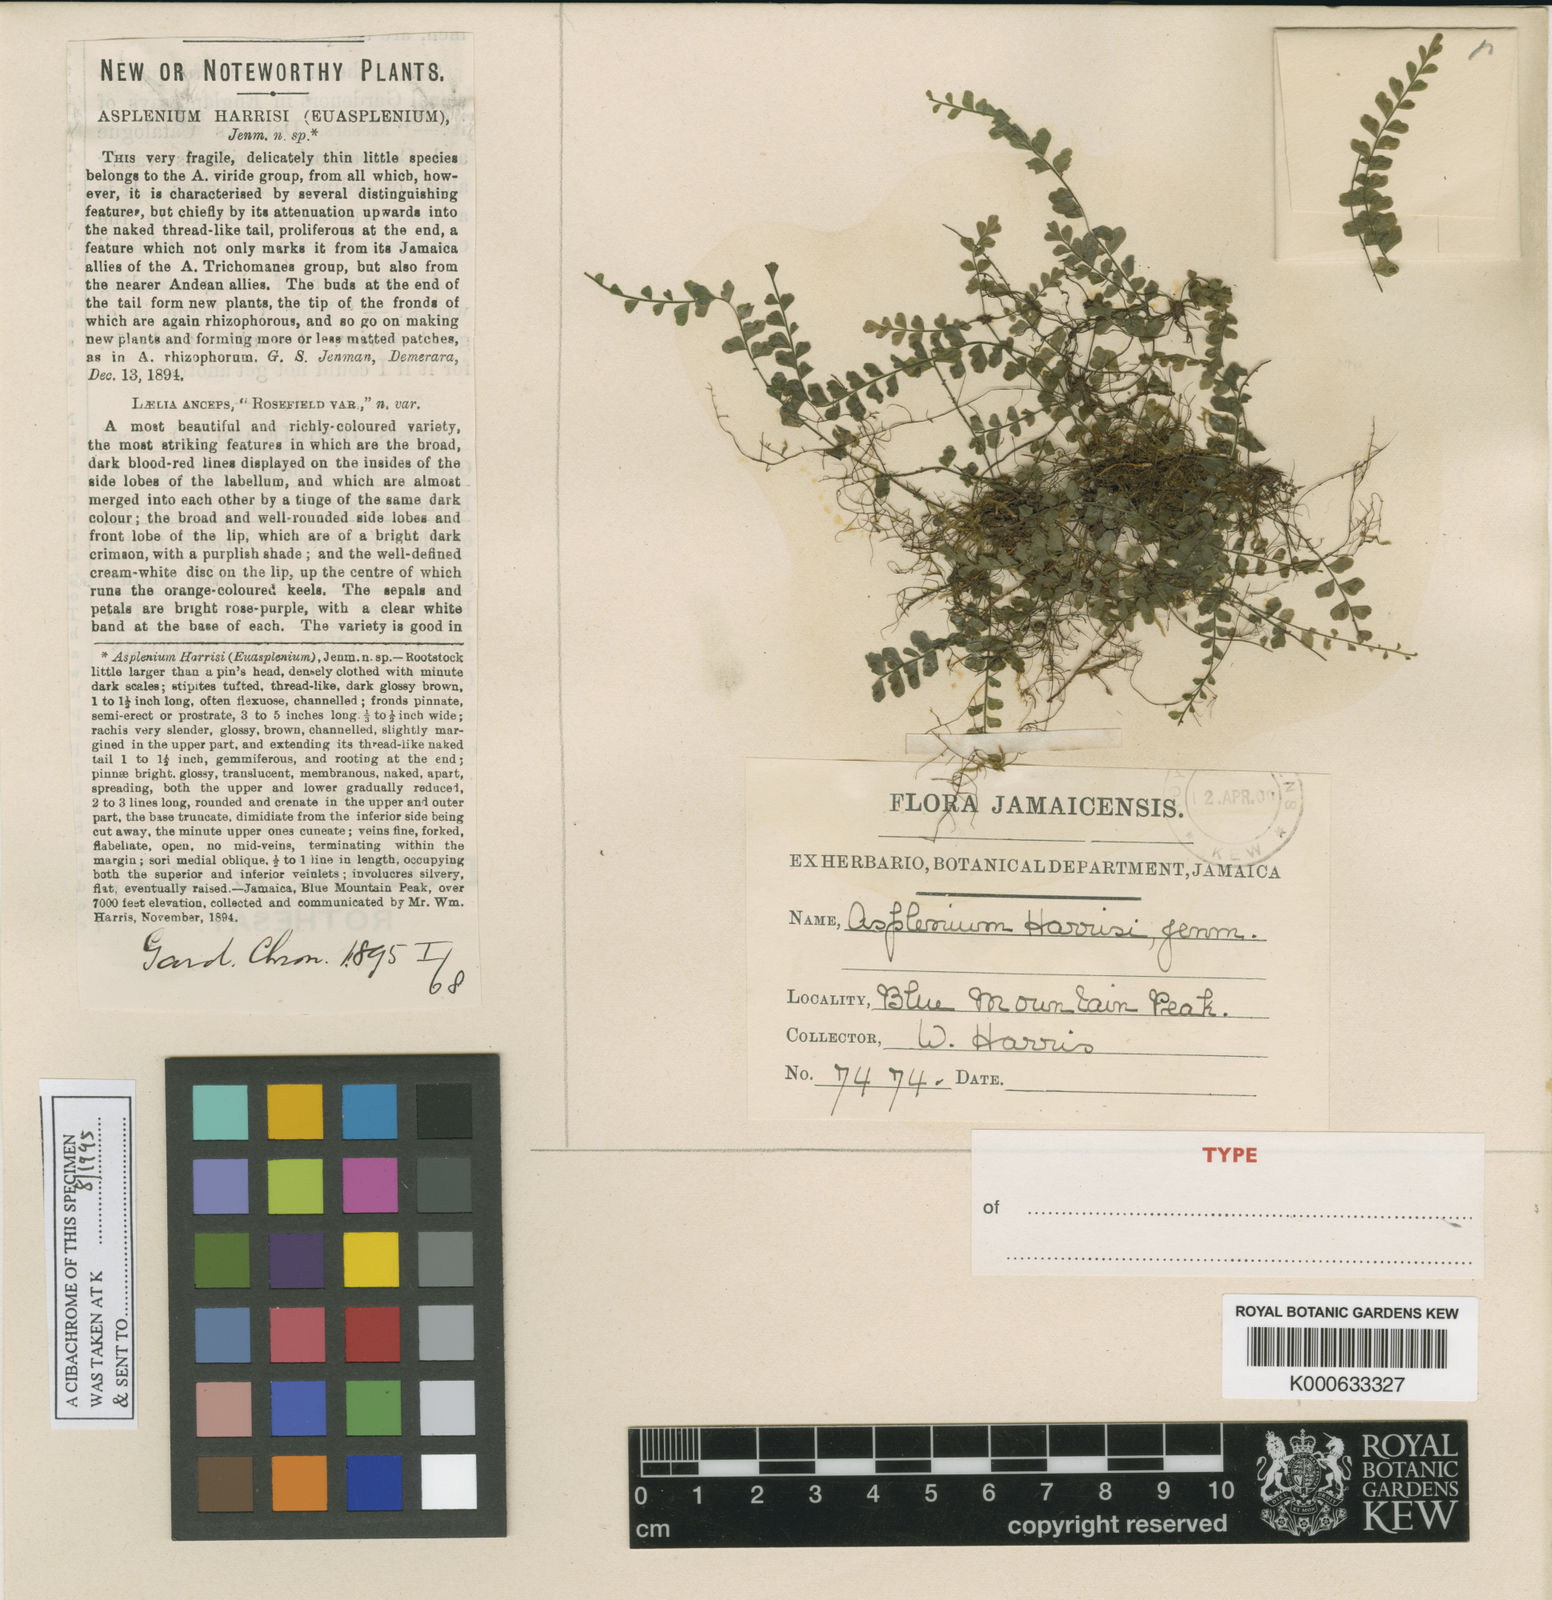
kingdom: Plantae
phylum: Tracheophyta
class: Polypodiopsida
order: Polypodiales
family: Aspleniaceae
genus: Asplenium
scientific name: Asplenium harrisii
